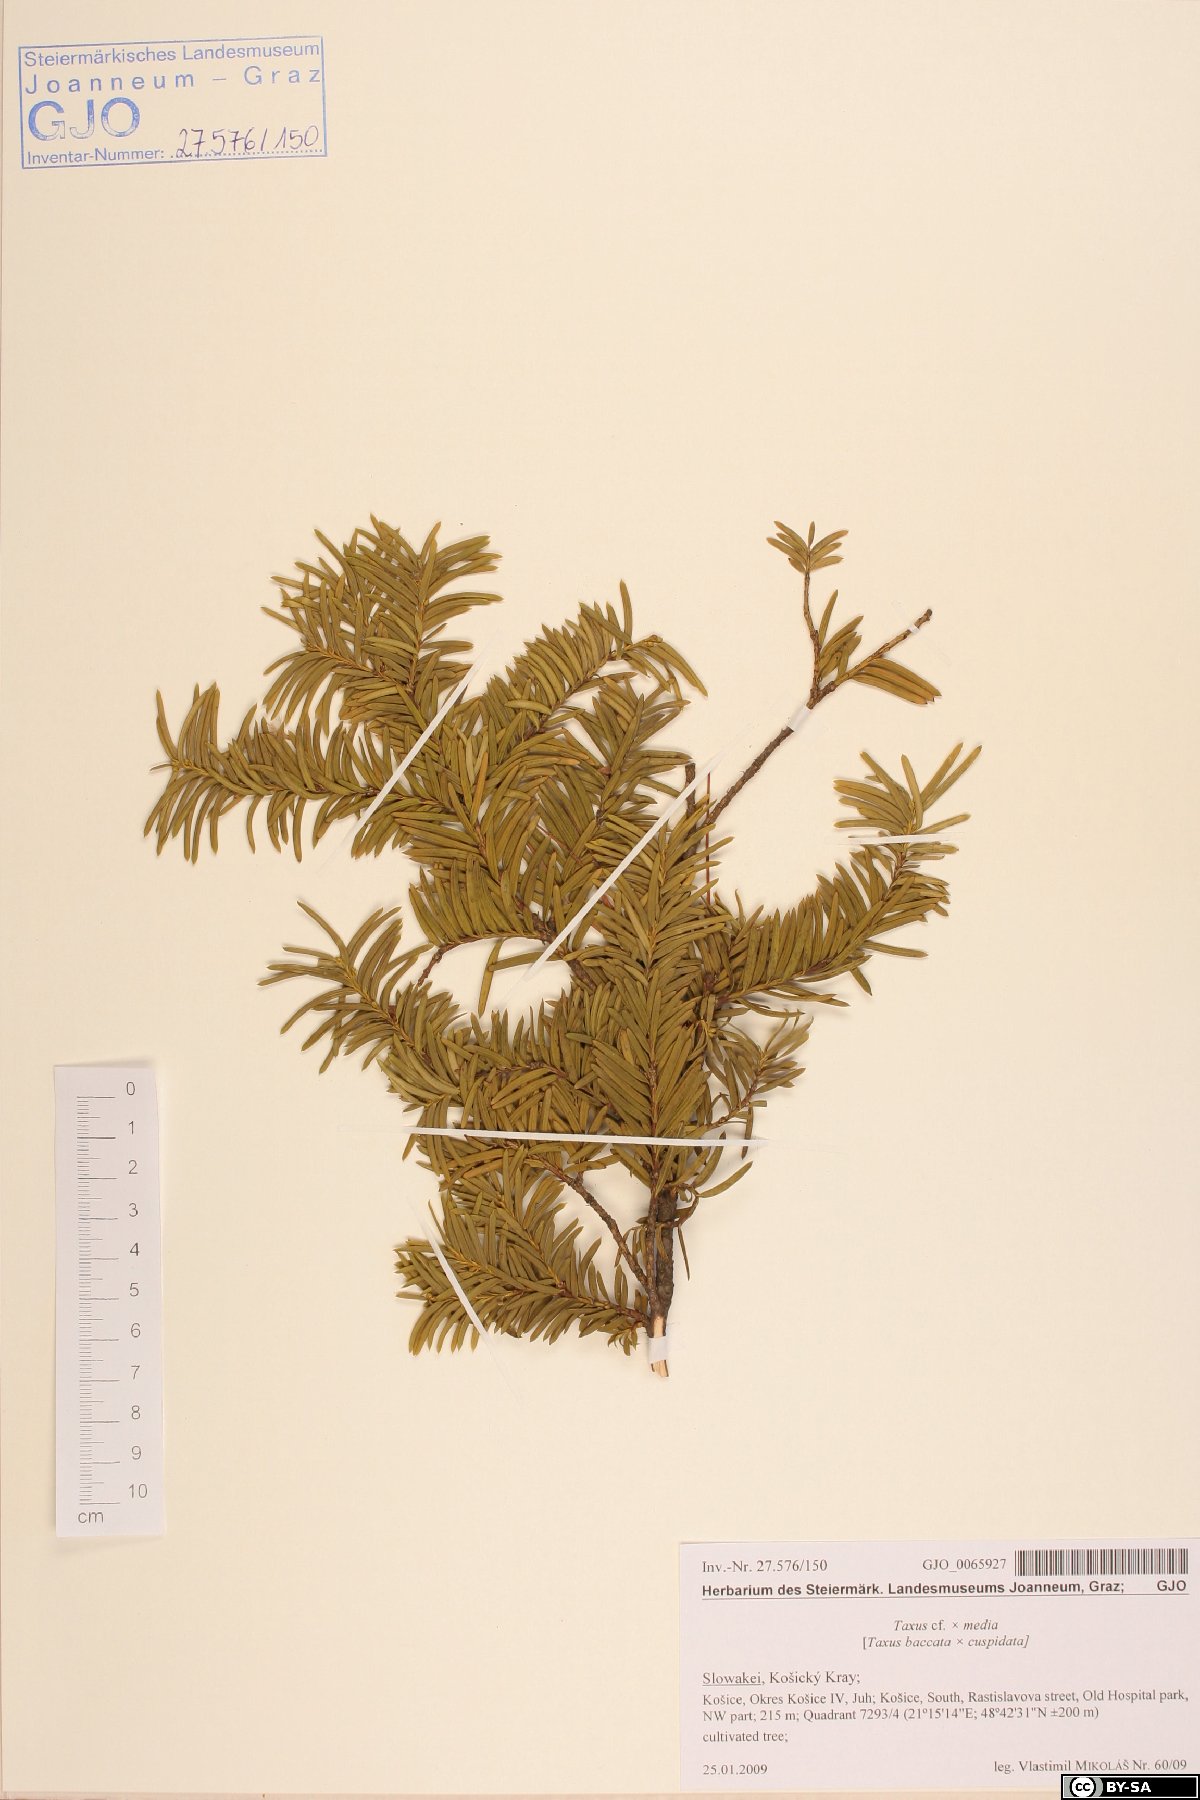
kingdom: Plantae
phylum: Tracheophyta
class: Pinopsida
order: Pinales
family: Taxaceae
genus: Taxus
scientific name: Taxus media
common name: Hybrid yew
